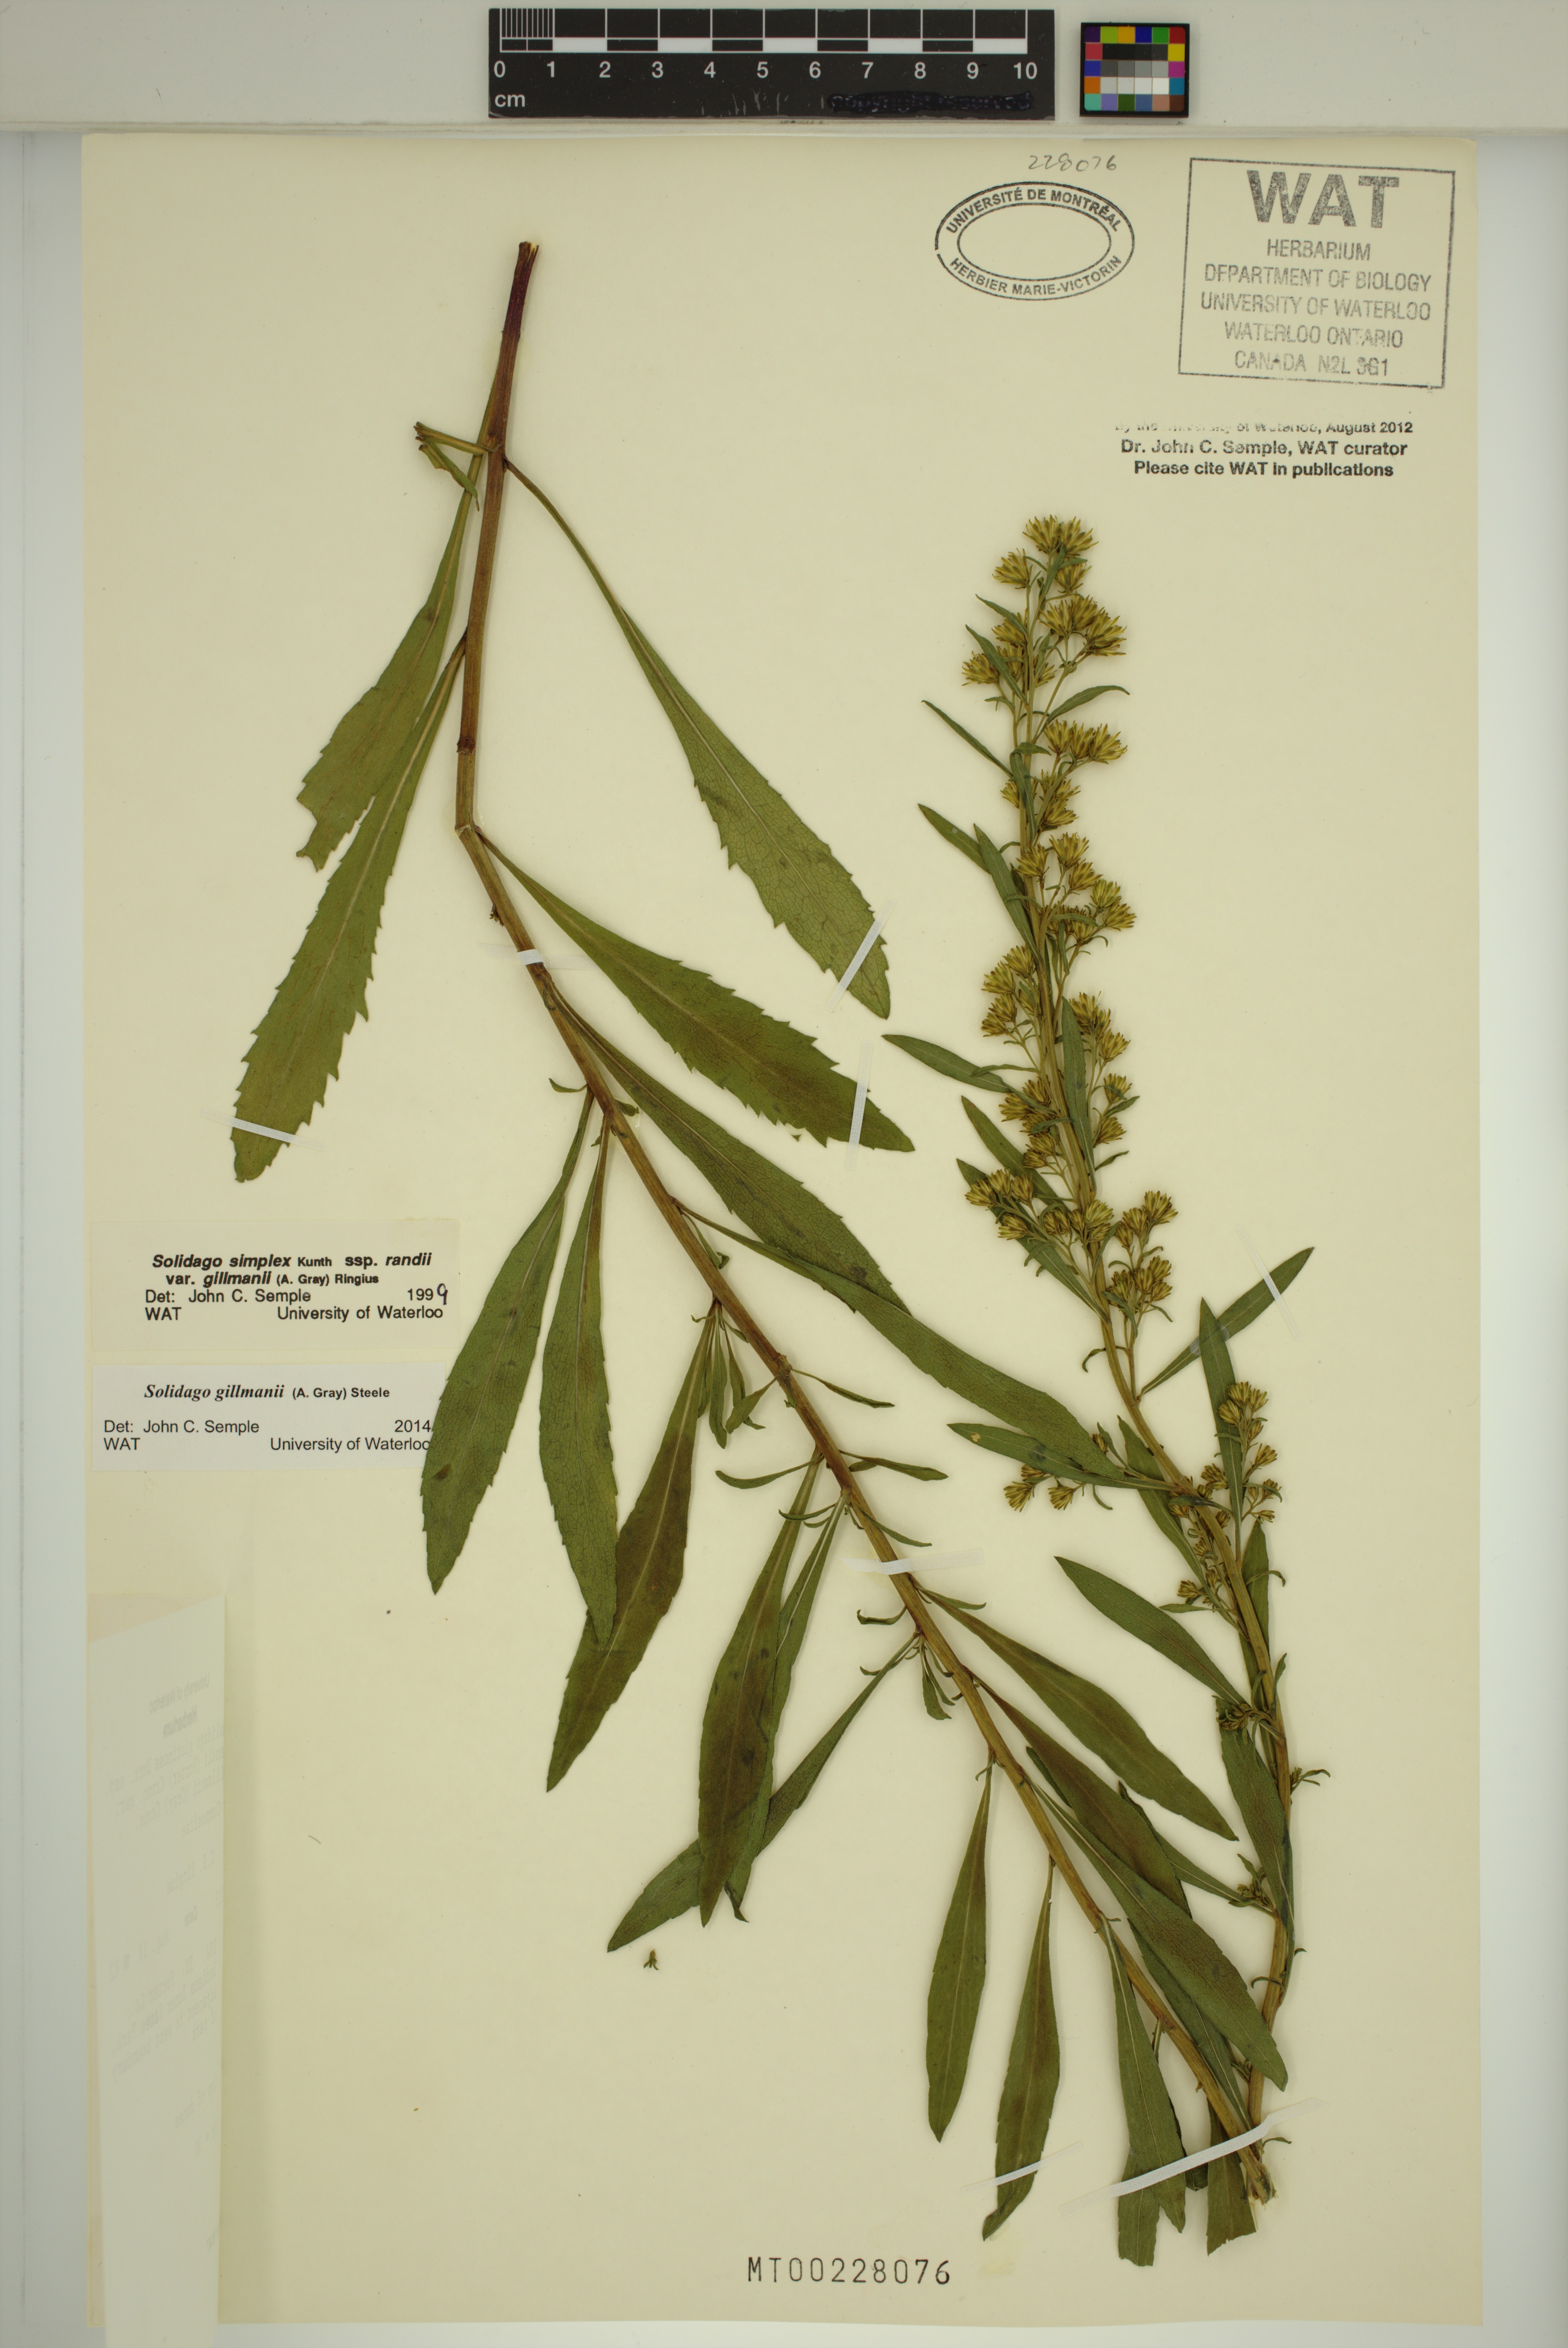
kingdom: Plantae
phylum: Tracheophyta
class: Magnoliopsida
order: Asterales
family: Asteraceae
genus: Solidago
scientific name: Solidago gillmanii
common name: Gillman's goldenrod
